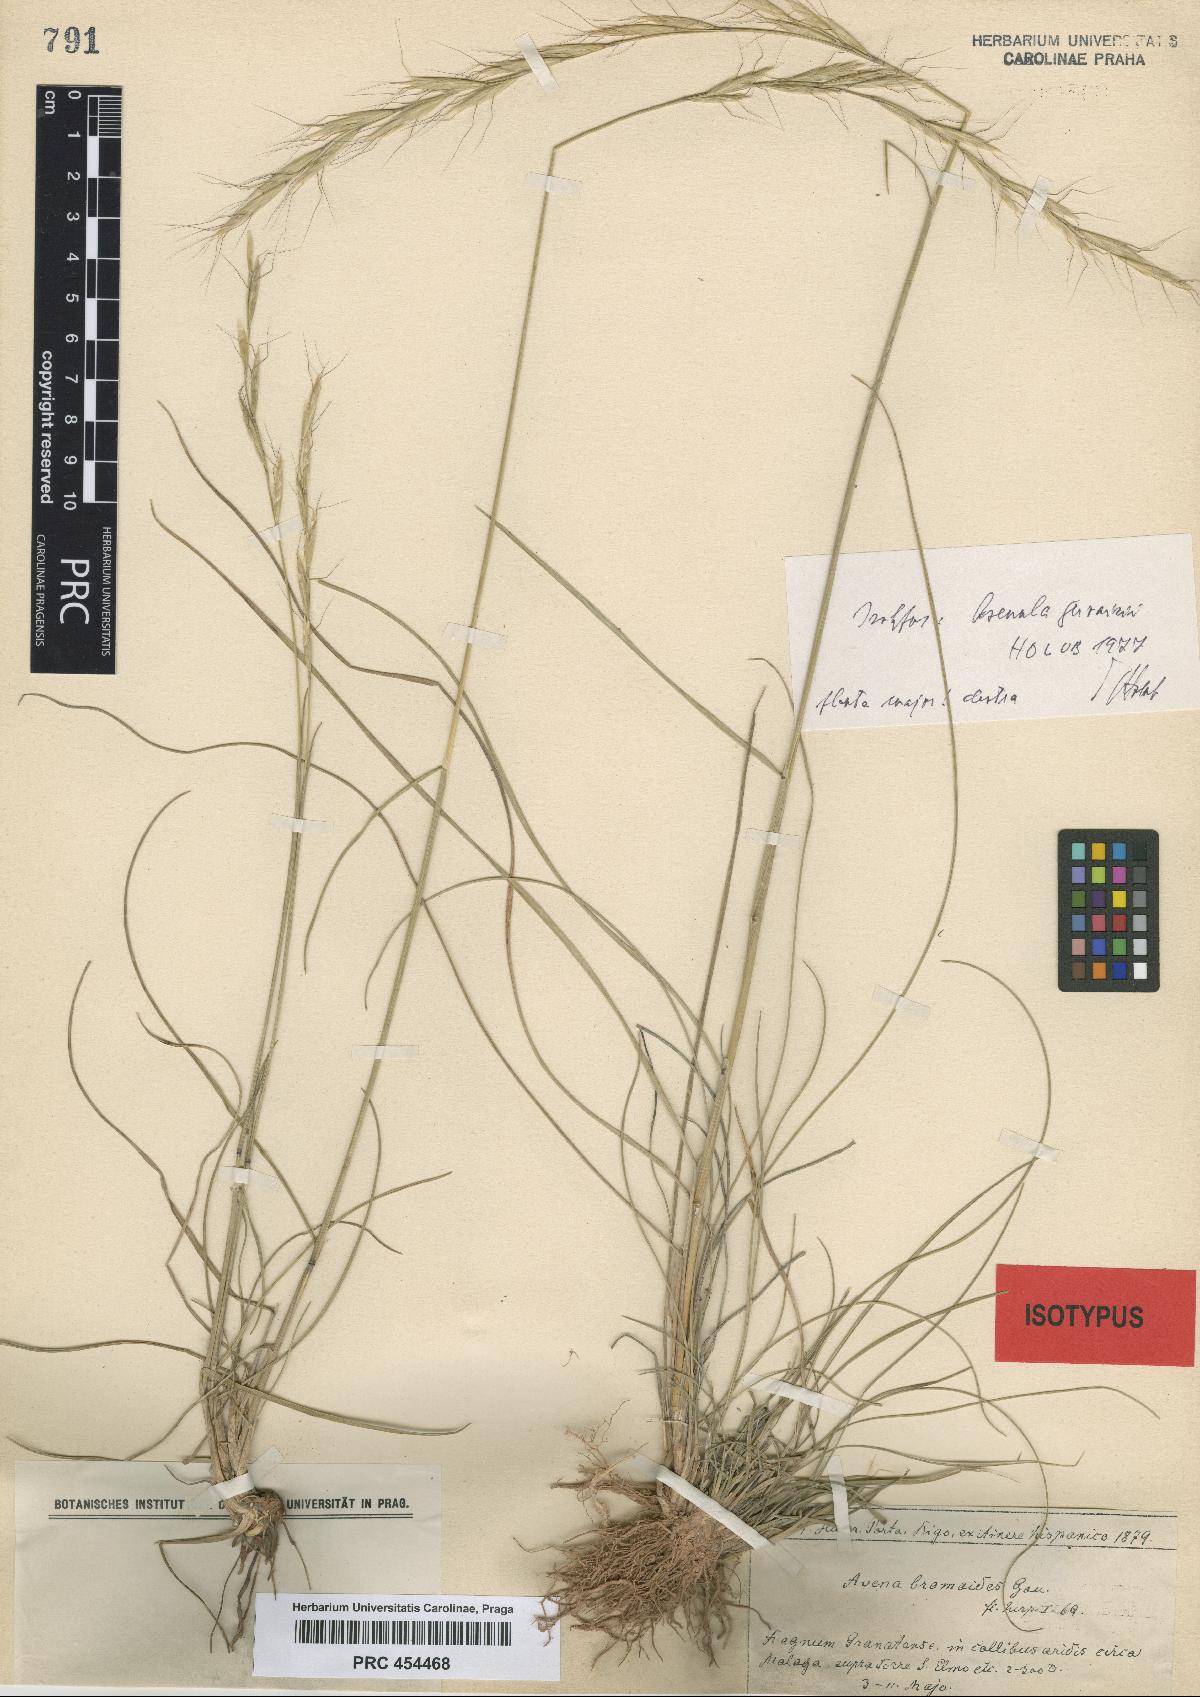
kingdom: Plantae
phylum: Tracheophyta
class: Liliopsida
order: Poales
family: Poaceae
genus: Helictochloa
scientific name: Helictochloa gervaisii
